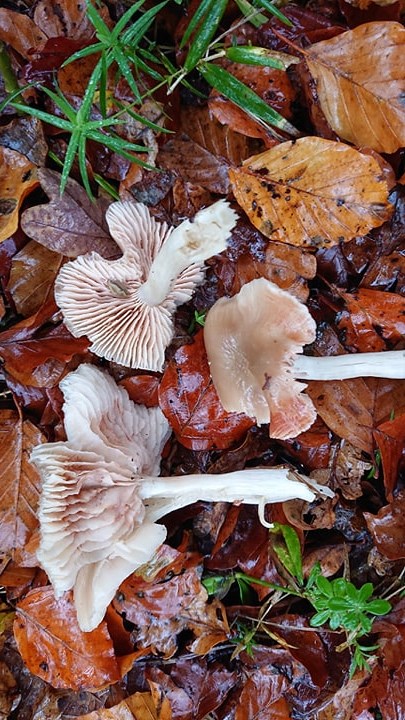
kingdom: Fungi
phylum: Basidiomycota
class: Agaricomycetes
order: Agaricales
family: Entolomataceae
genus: Entoloma
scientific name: Entoloma rhodopolium
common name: skov-rødblad
